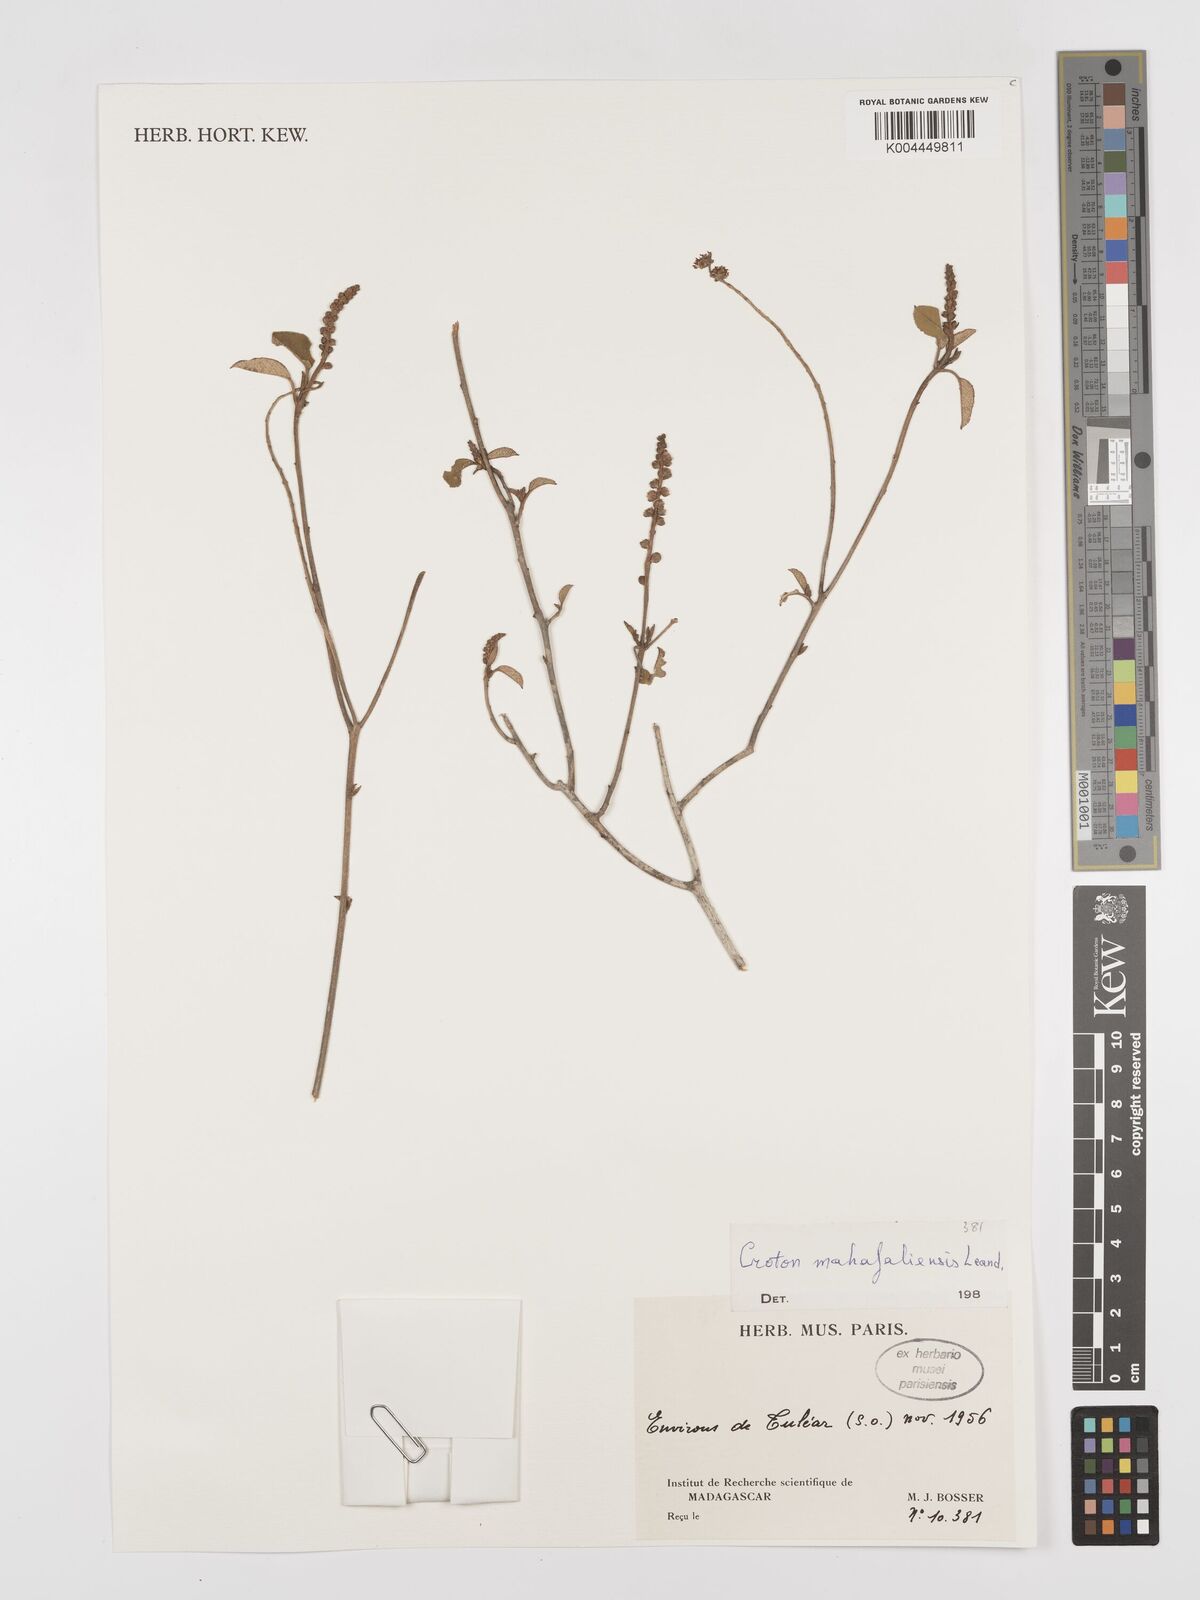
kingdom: Plantae
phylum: Tracheophyta
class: Magnoliopsida
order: Malpighiales
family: Euphorbiaceae
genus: Croton
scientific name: Croton cotoneaster
